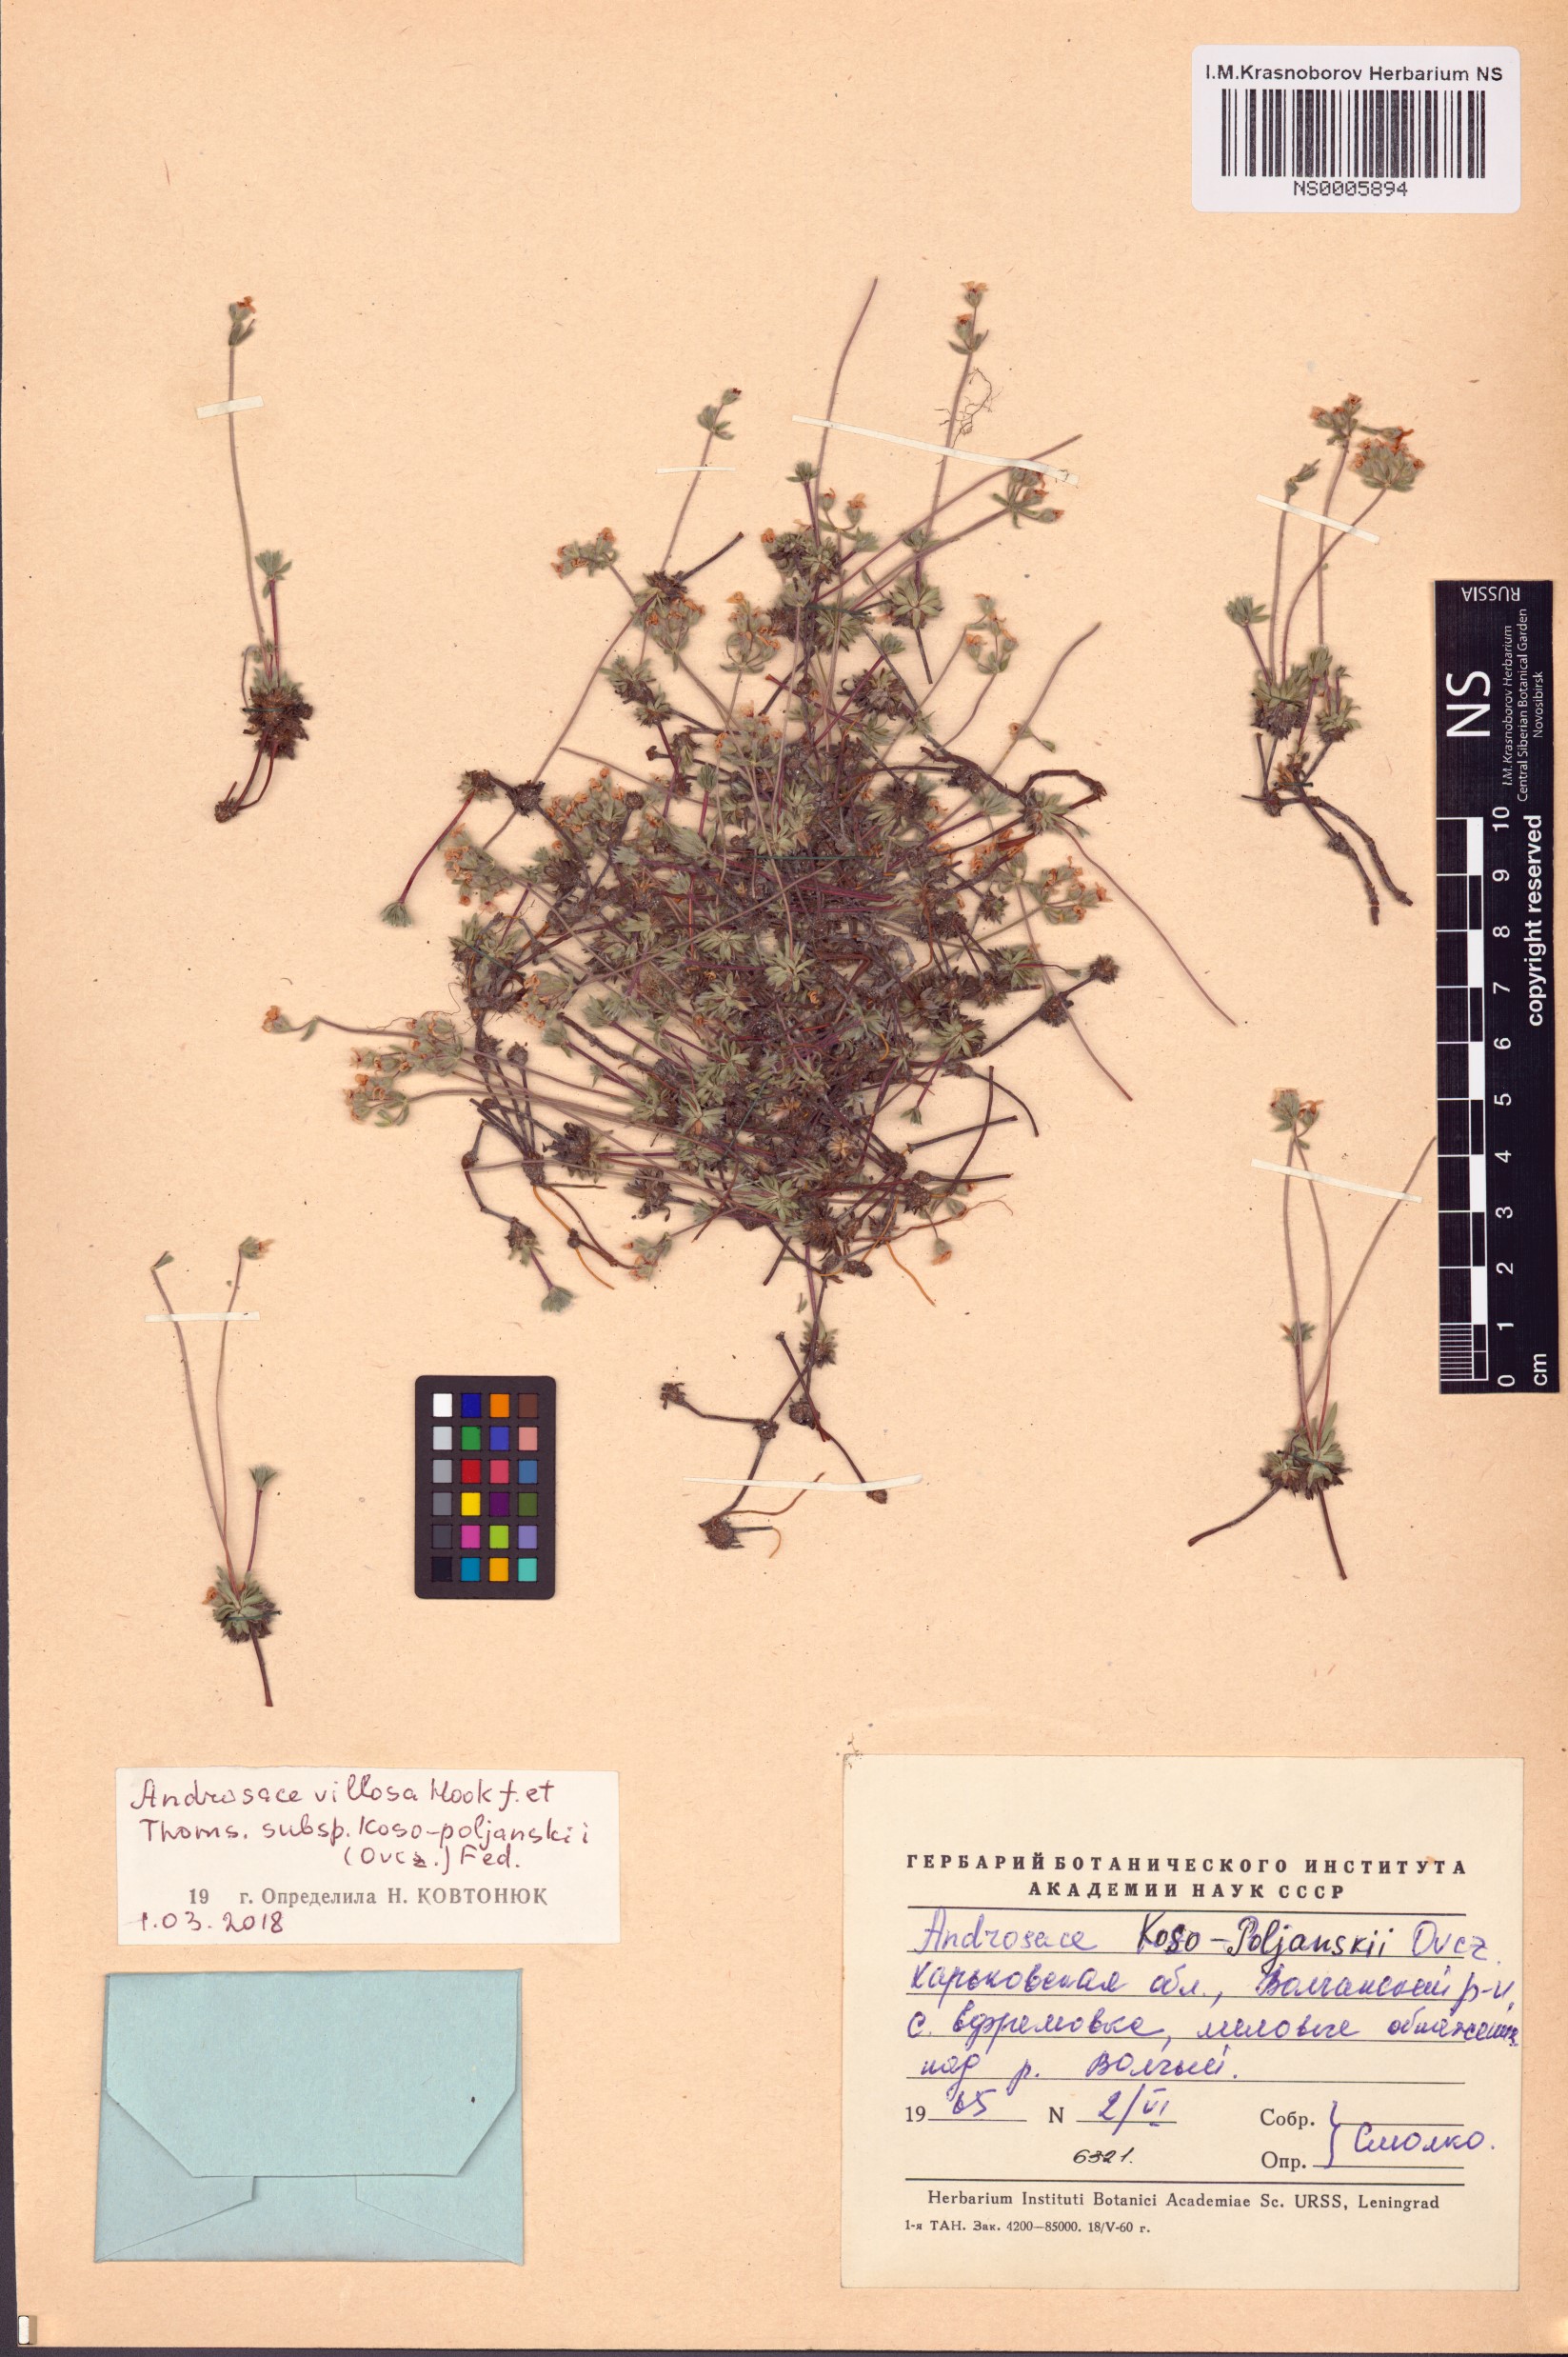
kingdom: Plantae
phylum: Tracheophyta
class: Magnoliopsida
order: Ericales
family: Primulaceae
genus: Androsace
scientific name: Androsace villosa
